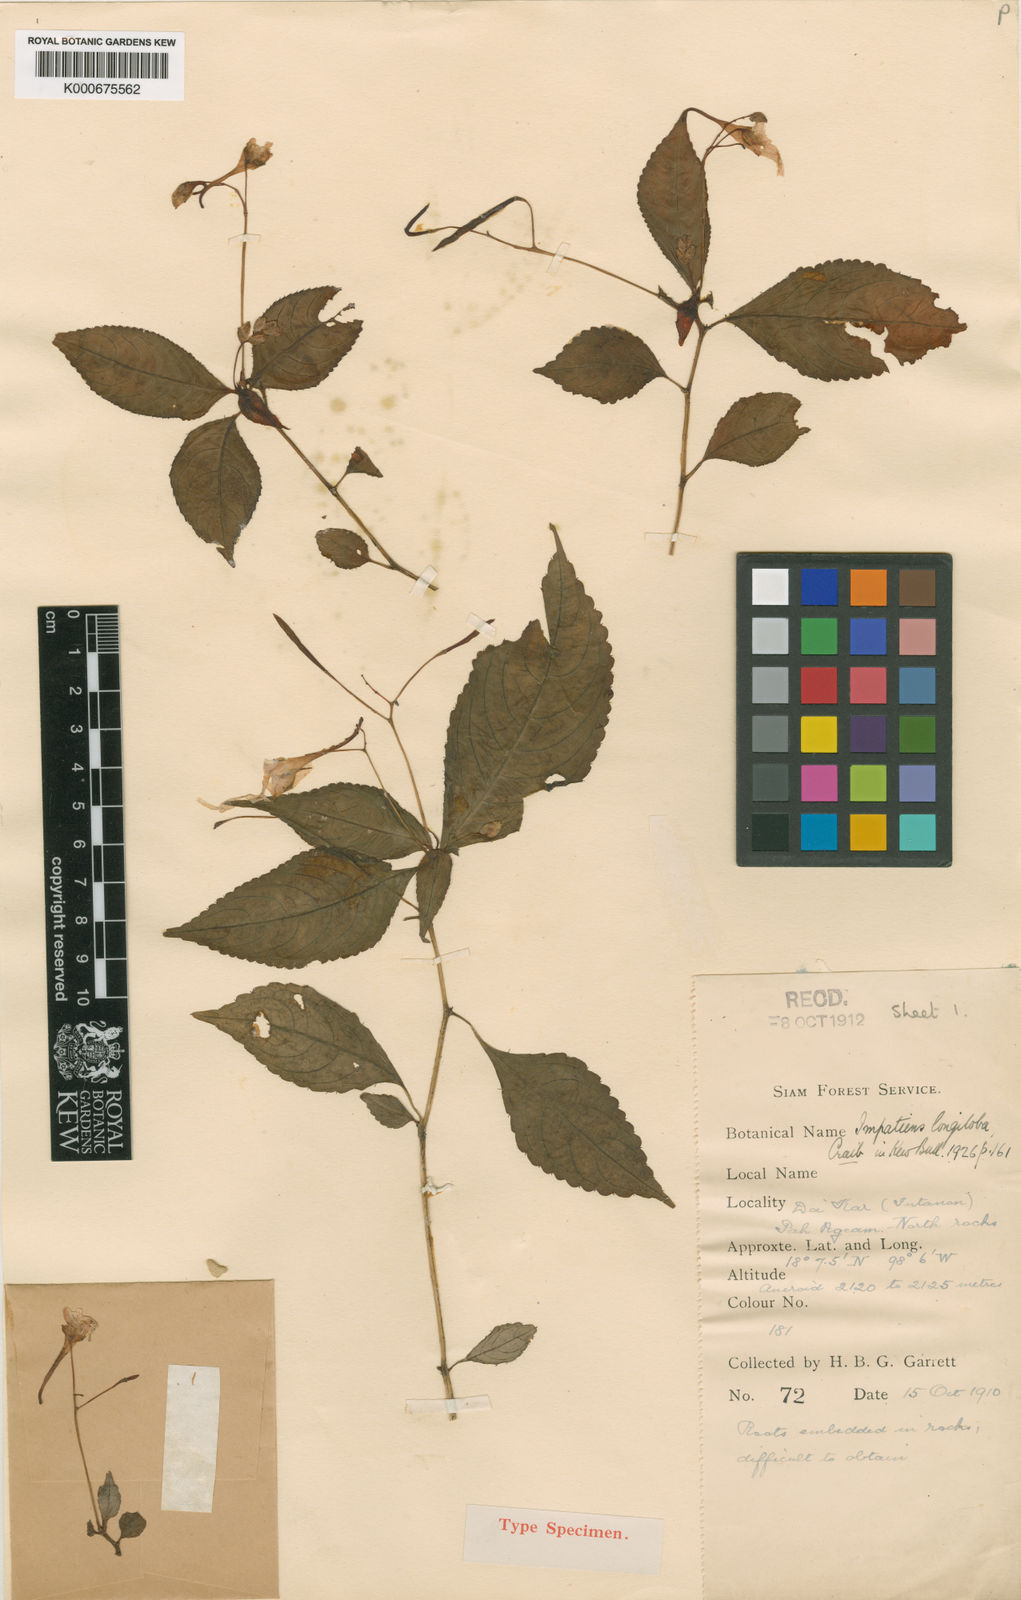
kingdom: Plantae
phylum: Tracheophyta
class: Magnoliopsida
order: Ericales
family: Balsaminaceae
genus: Impatiens
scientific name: Impatiens longiloba
